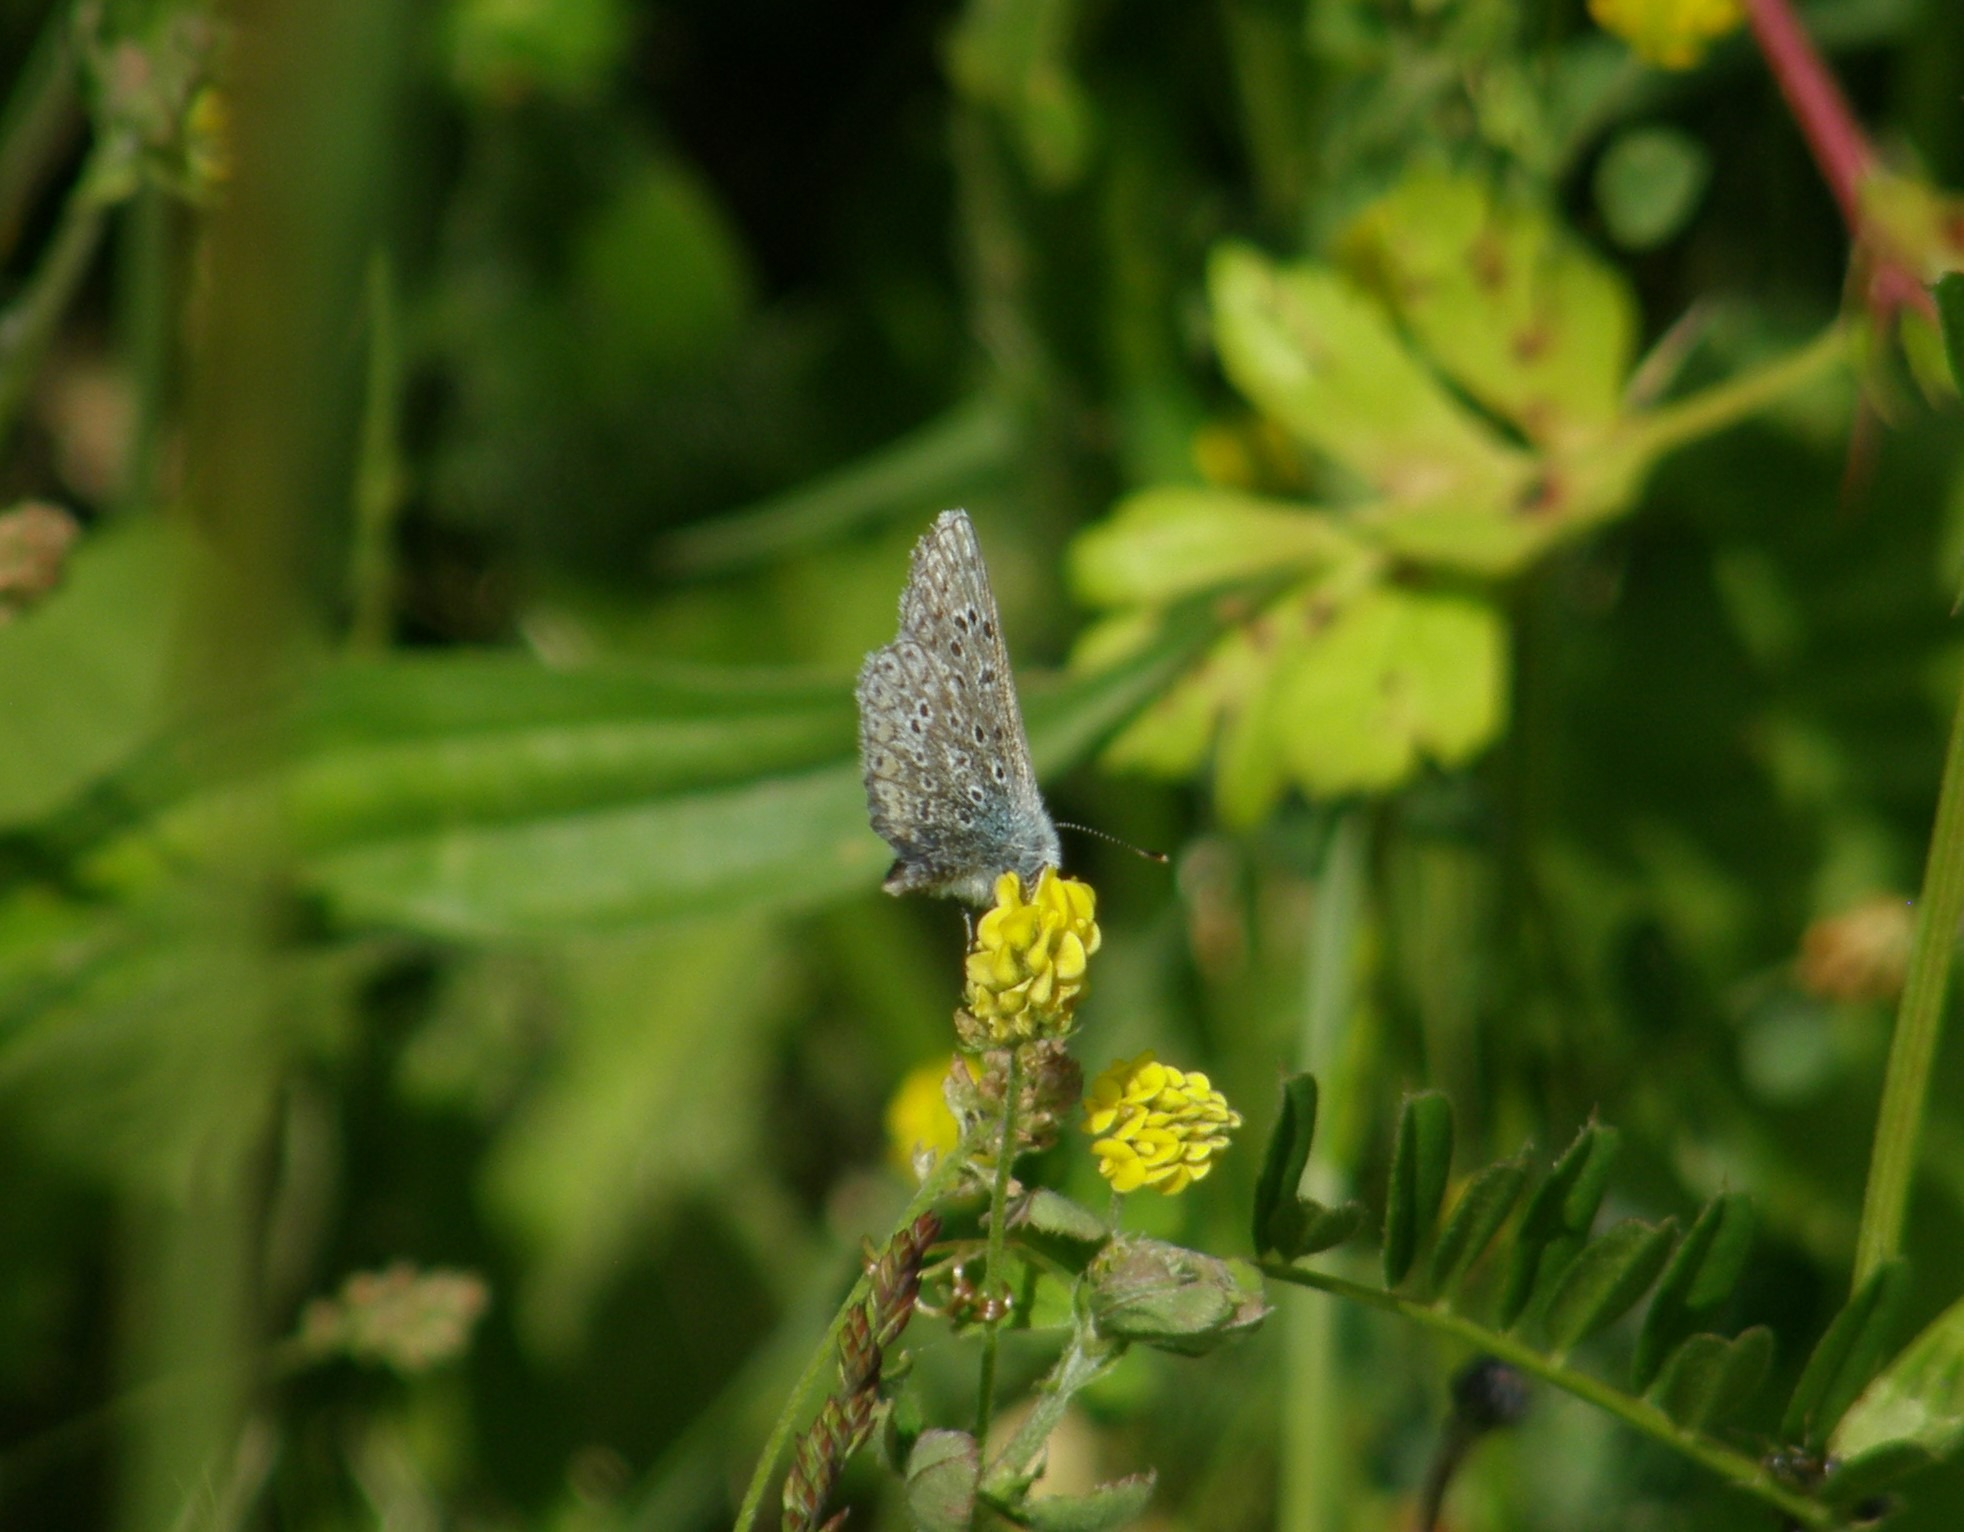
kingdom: Animalia
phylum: Arthropoda
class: Insecta
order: Lepidoptera
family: Lycaenidae
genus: Polyommatus
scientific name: Polyommatus icarus
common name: Almindelig blåfugl
